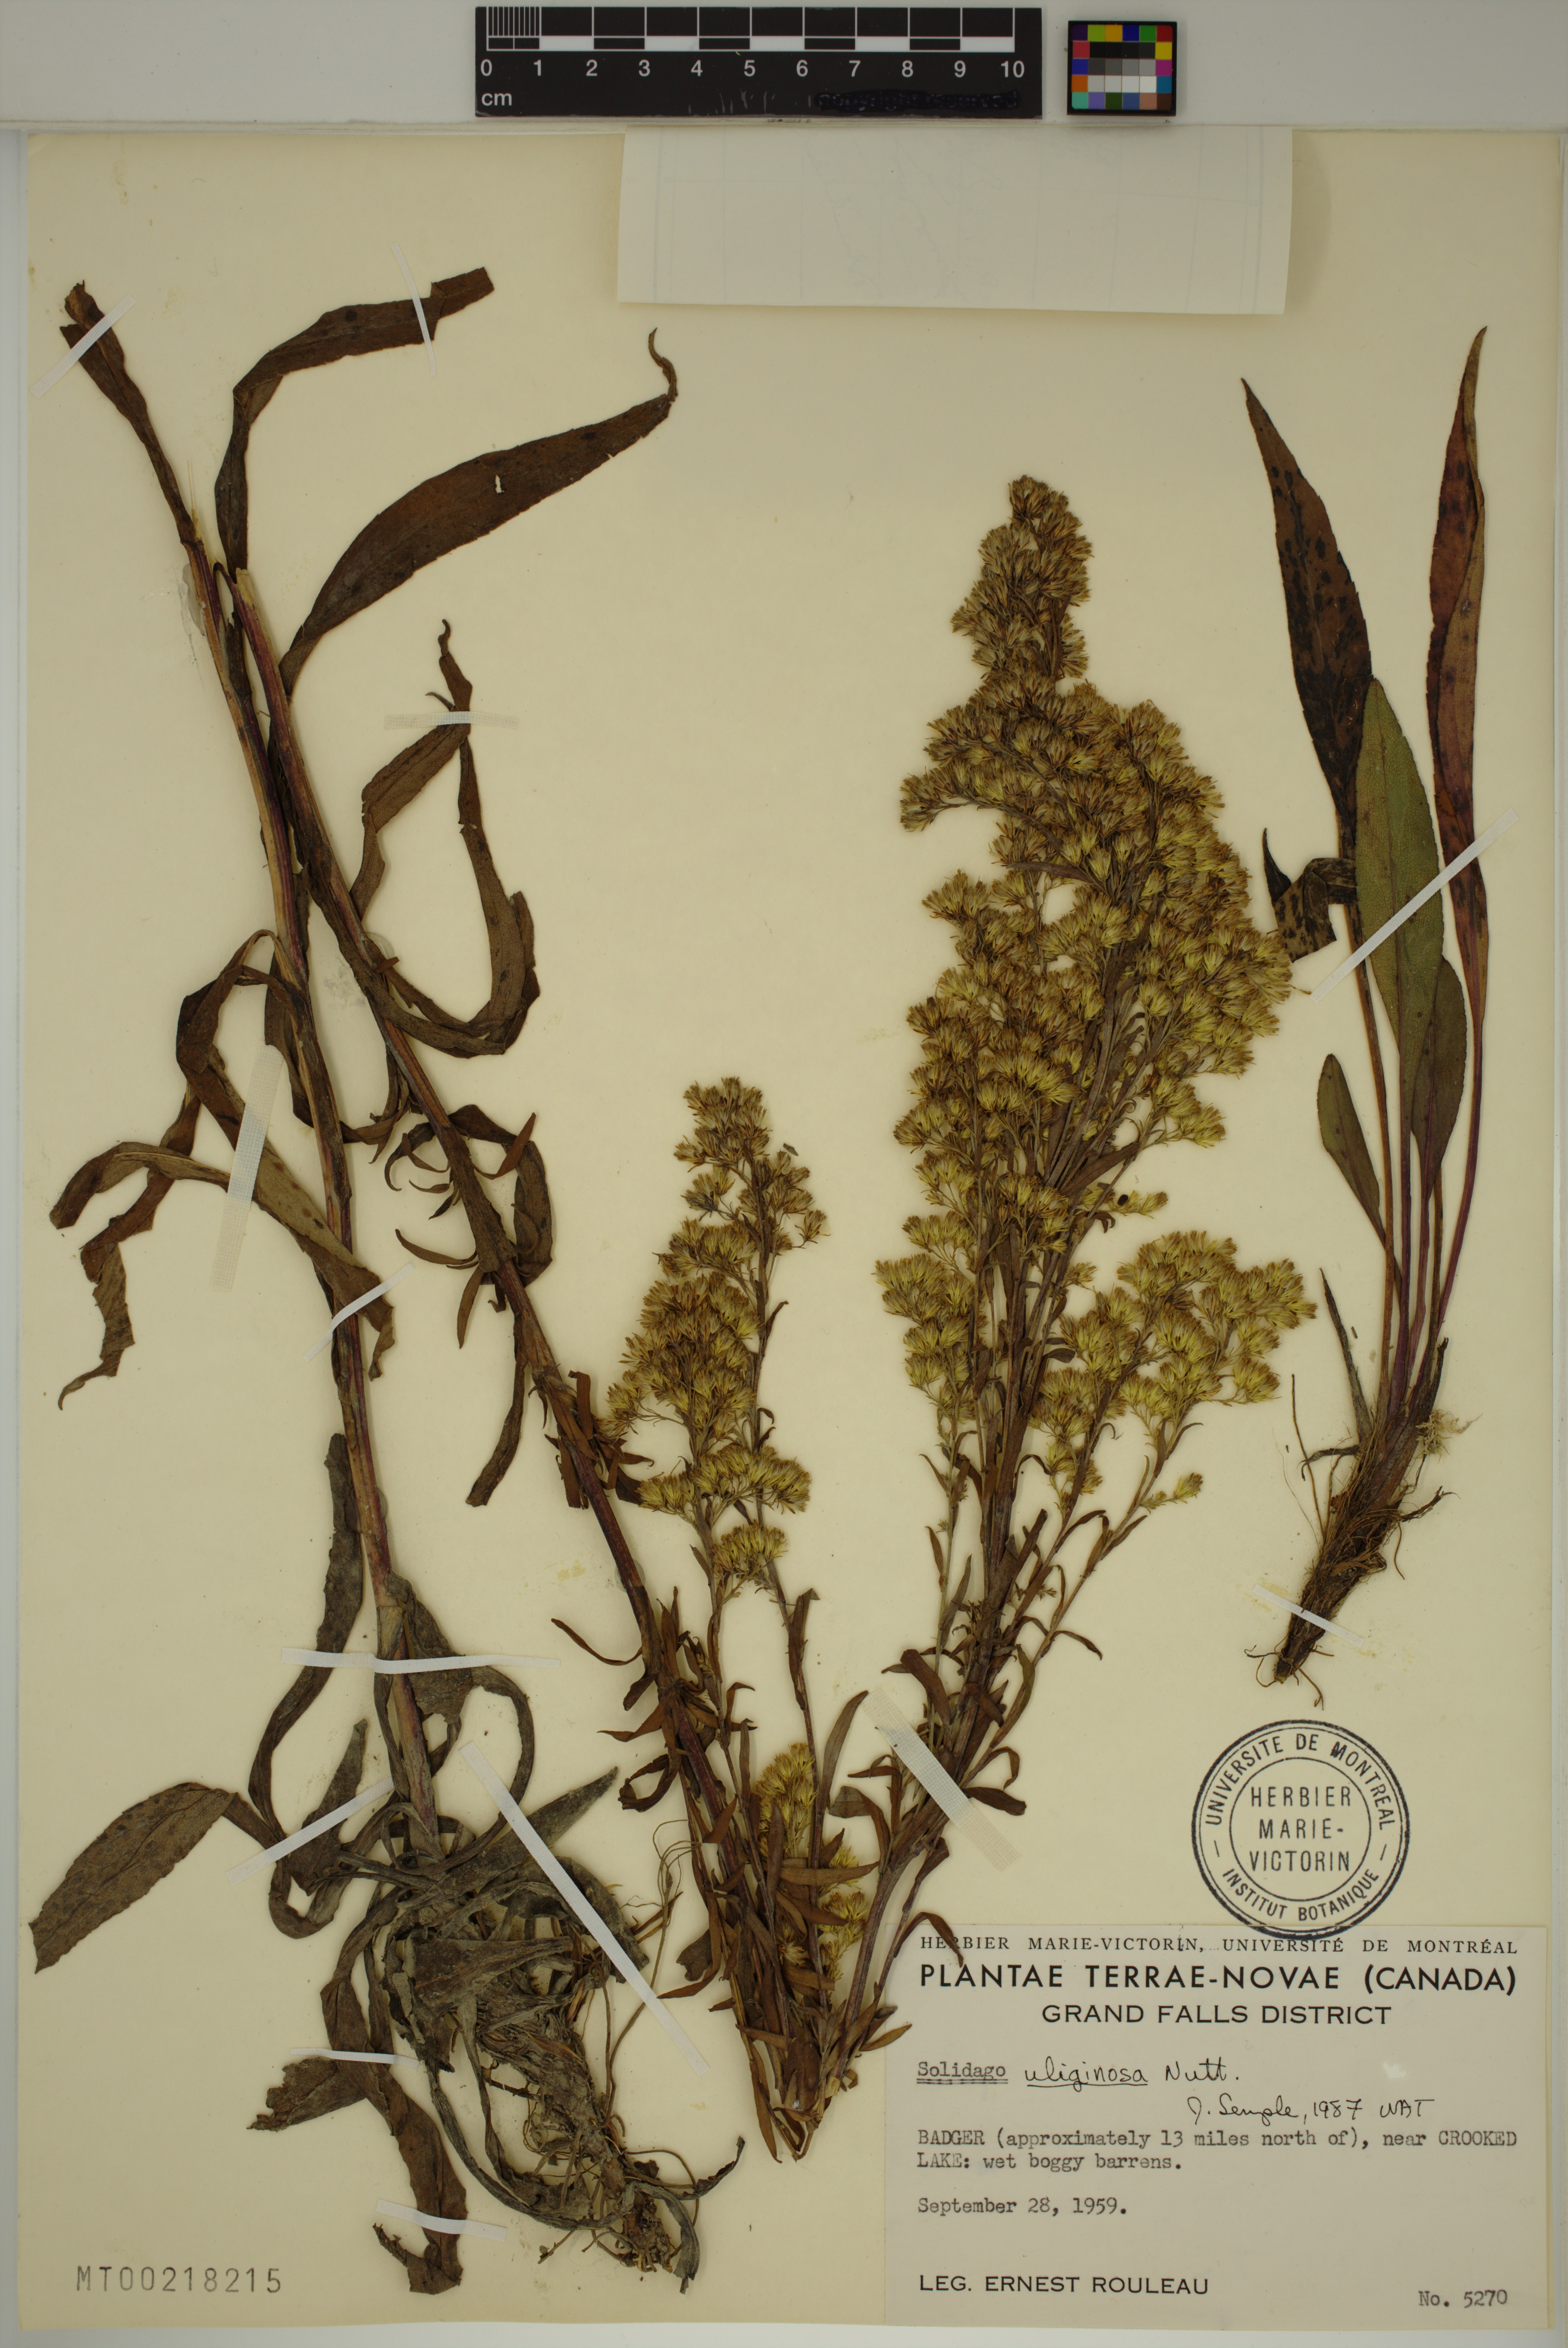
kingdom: Plantae
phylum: Tracheophyta
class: Magnoliopsida
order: Asterales
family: Asteraceae
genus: Solidago
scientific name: Solidago uliginosa
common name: Bog goldenrod
